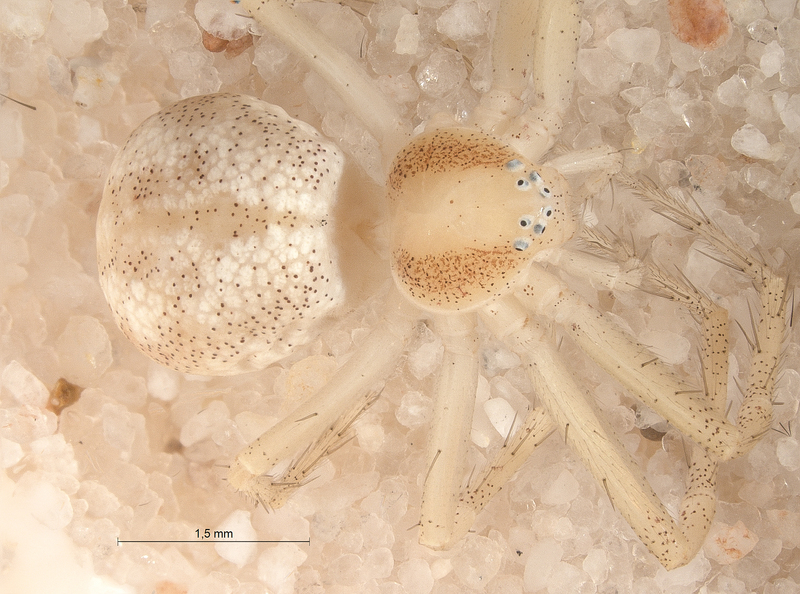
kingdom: Animalia
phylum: Arthropoda
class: Arachnida
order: Araneae
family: Philodromidae
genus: Philodromus
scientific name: Philodromus albidus
